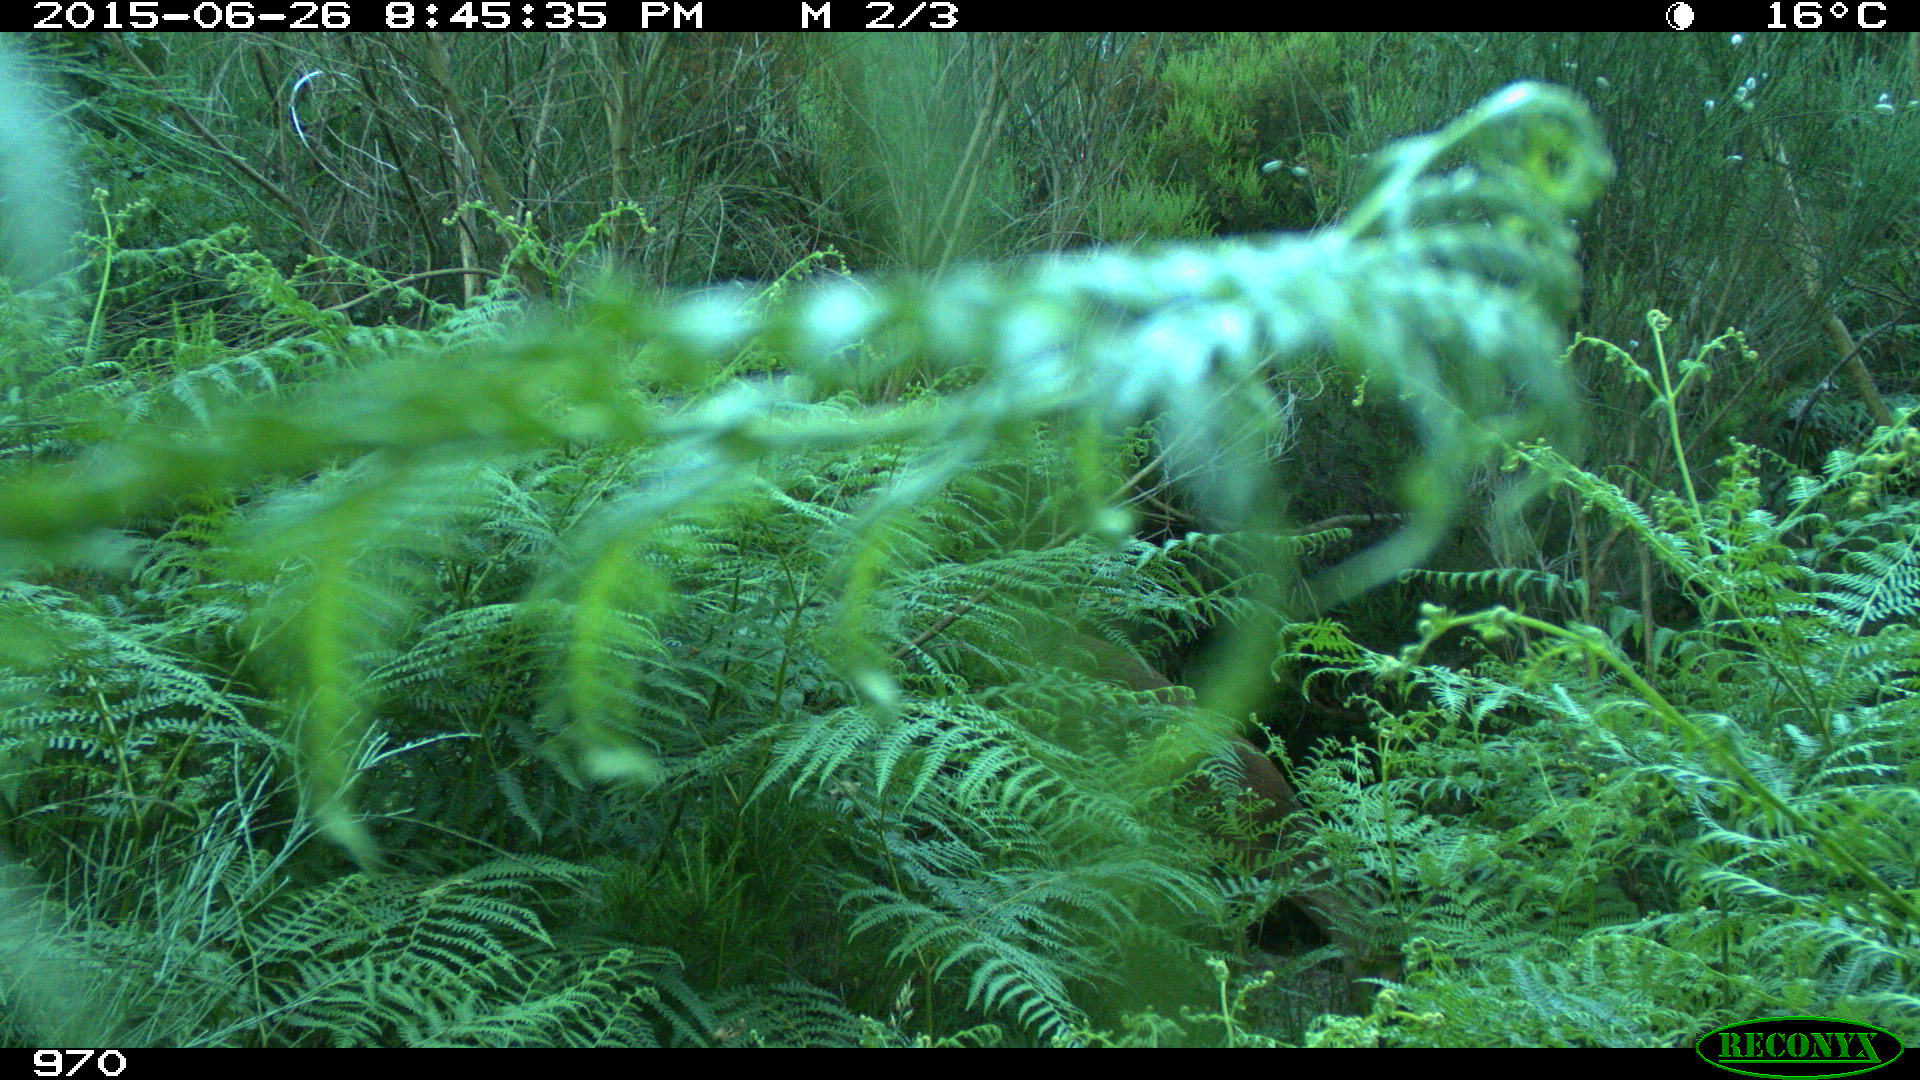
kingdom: Animalia
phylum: Chordata
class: Mammalia
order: Artiodactyla
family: Cervidae
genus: Capreolus
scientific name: Capreolus capreolus
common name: Western roe deer
